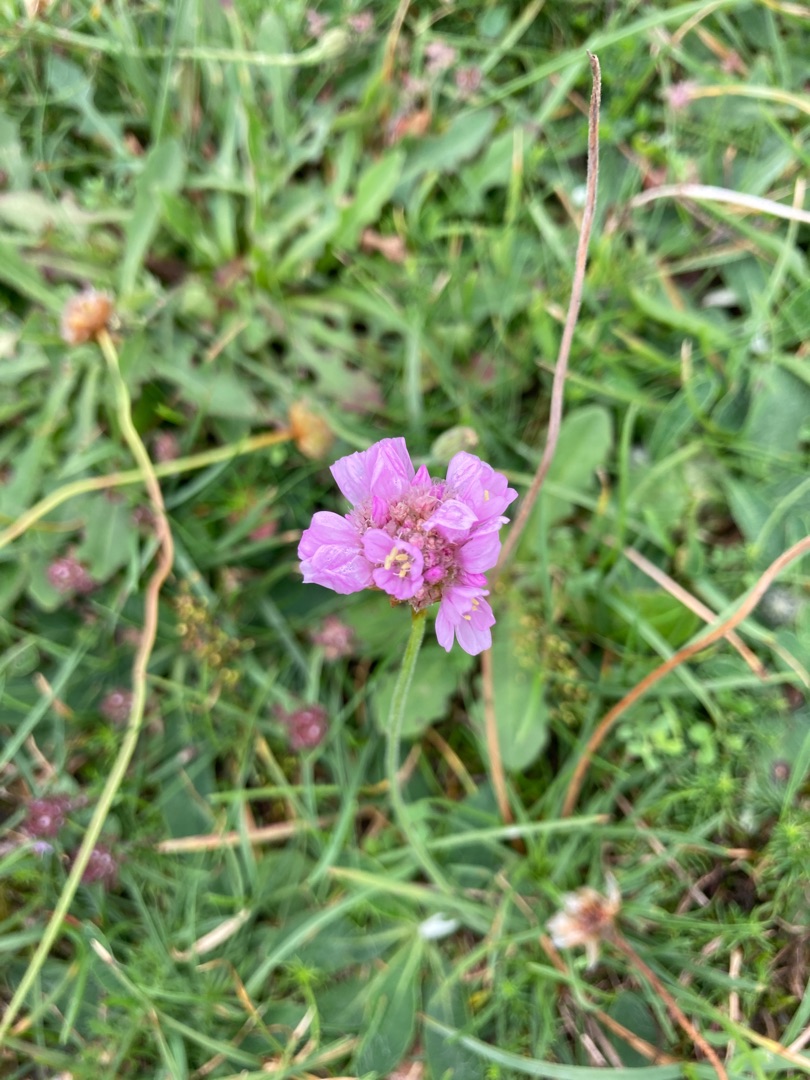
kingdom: Plantae
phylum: Tracheophyta
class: Magnoliopsida
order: Caryophyllales
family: Plumbaginaceae
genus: Armeria
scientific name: Armeria maritima
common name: Engelskgræs
